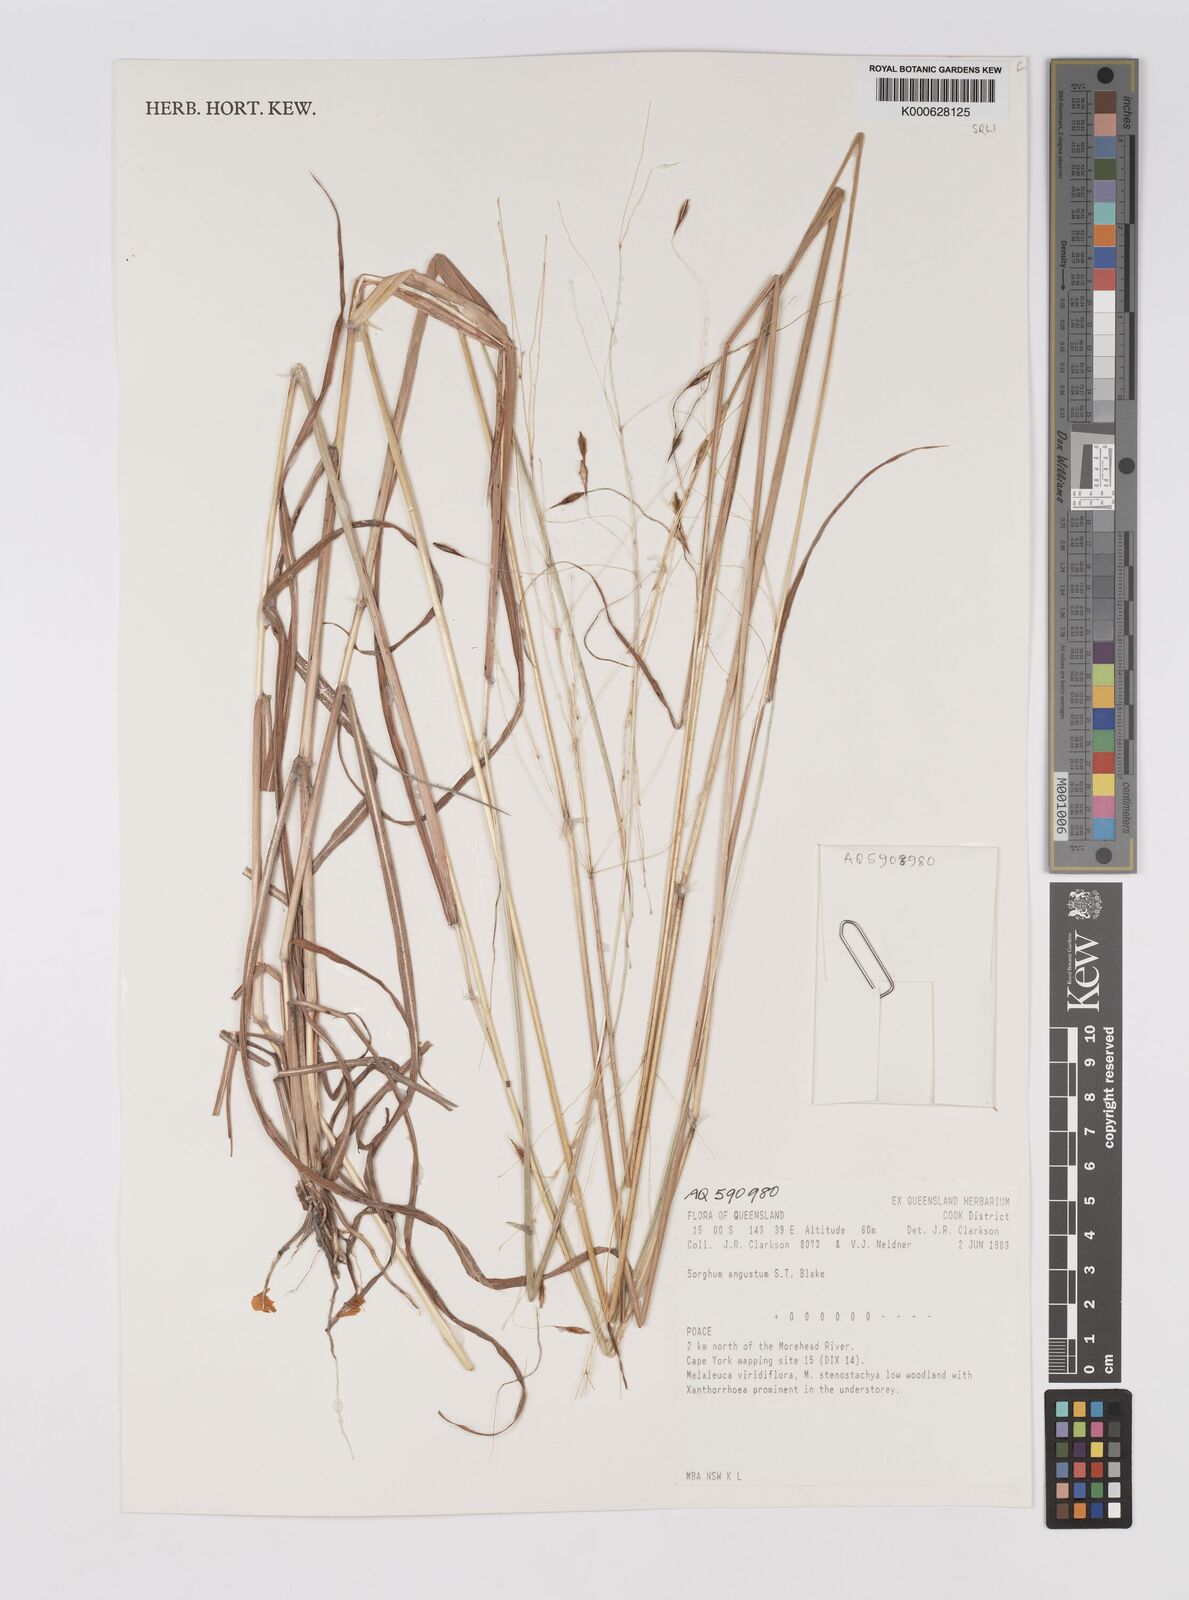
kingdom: Plantae
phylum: Tracheophyta
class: Liliopsida
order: Poales
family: Poaceae
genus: Sarga
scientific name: Sarga angusta
